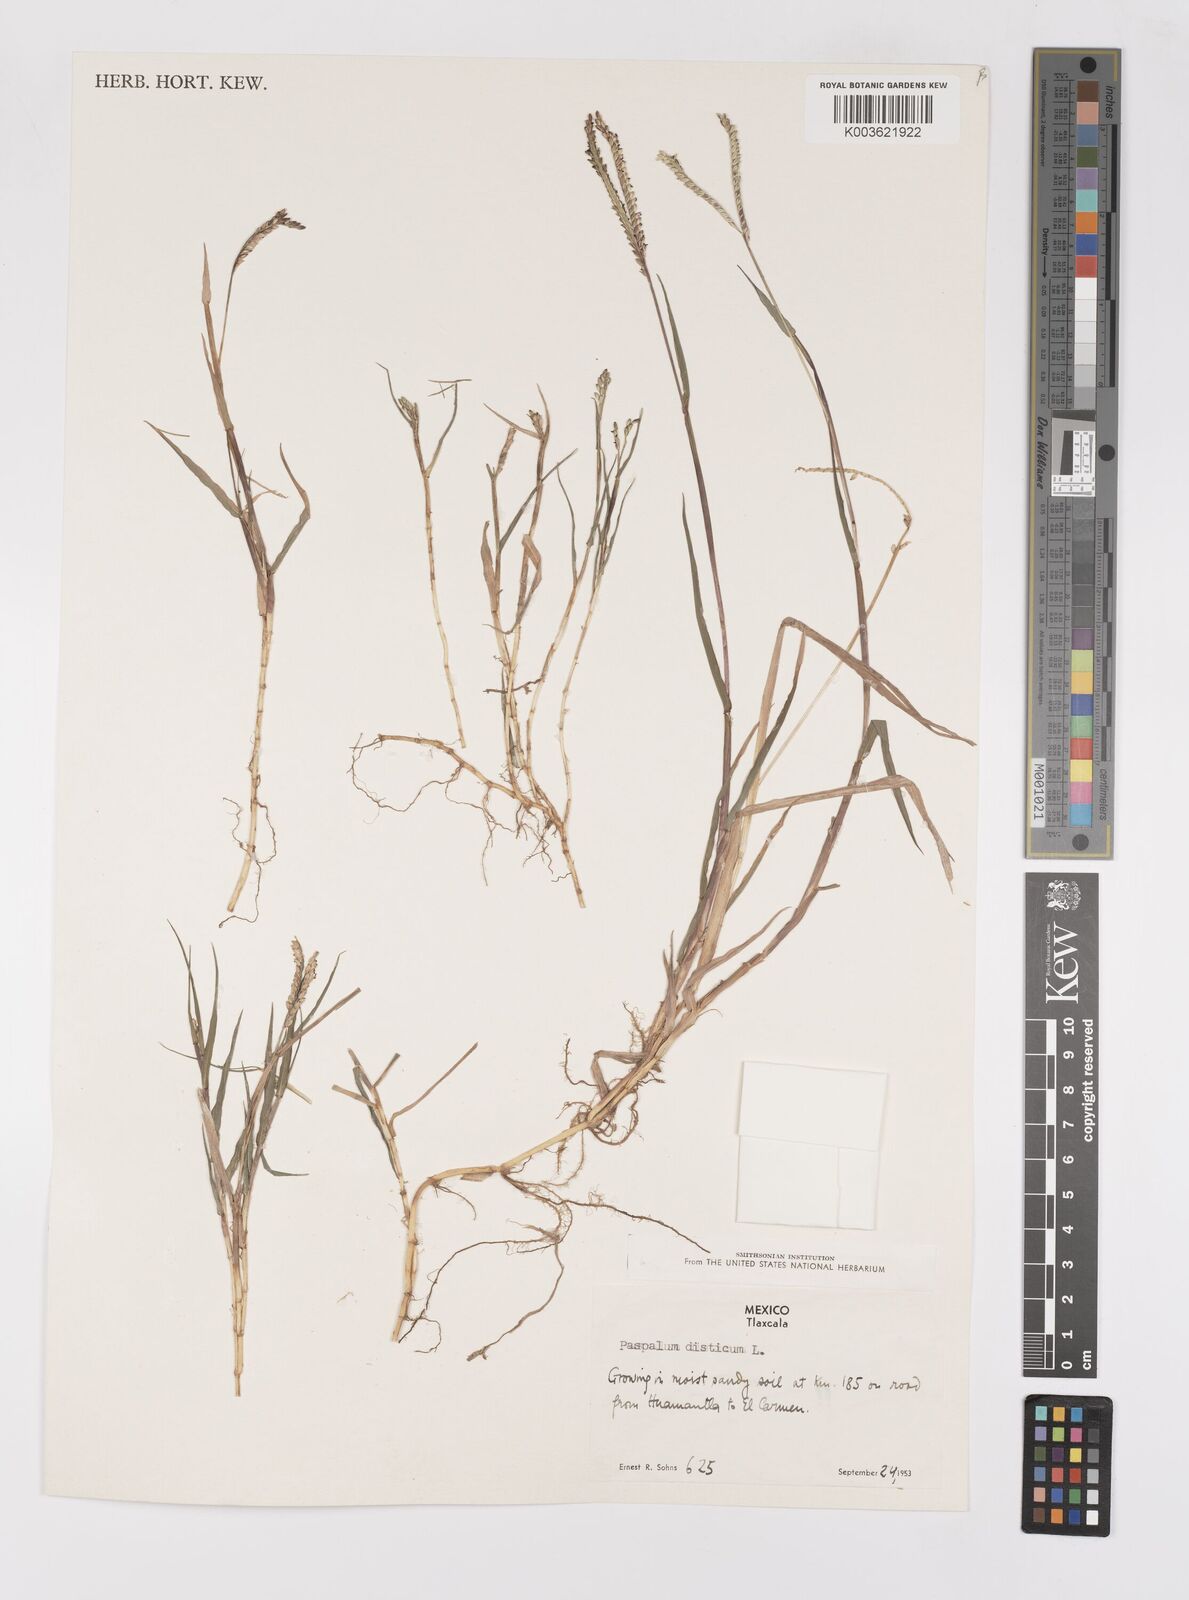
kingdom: Plantae
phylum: Tracheophyta
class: Liliopsida
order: Poales
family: Poaceae
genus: Paspalum
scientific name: Paspalum distichum
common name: Knotgrass
